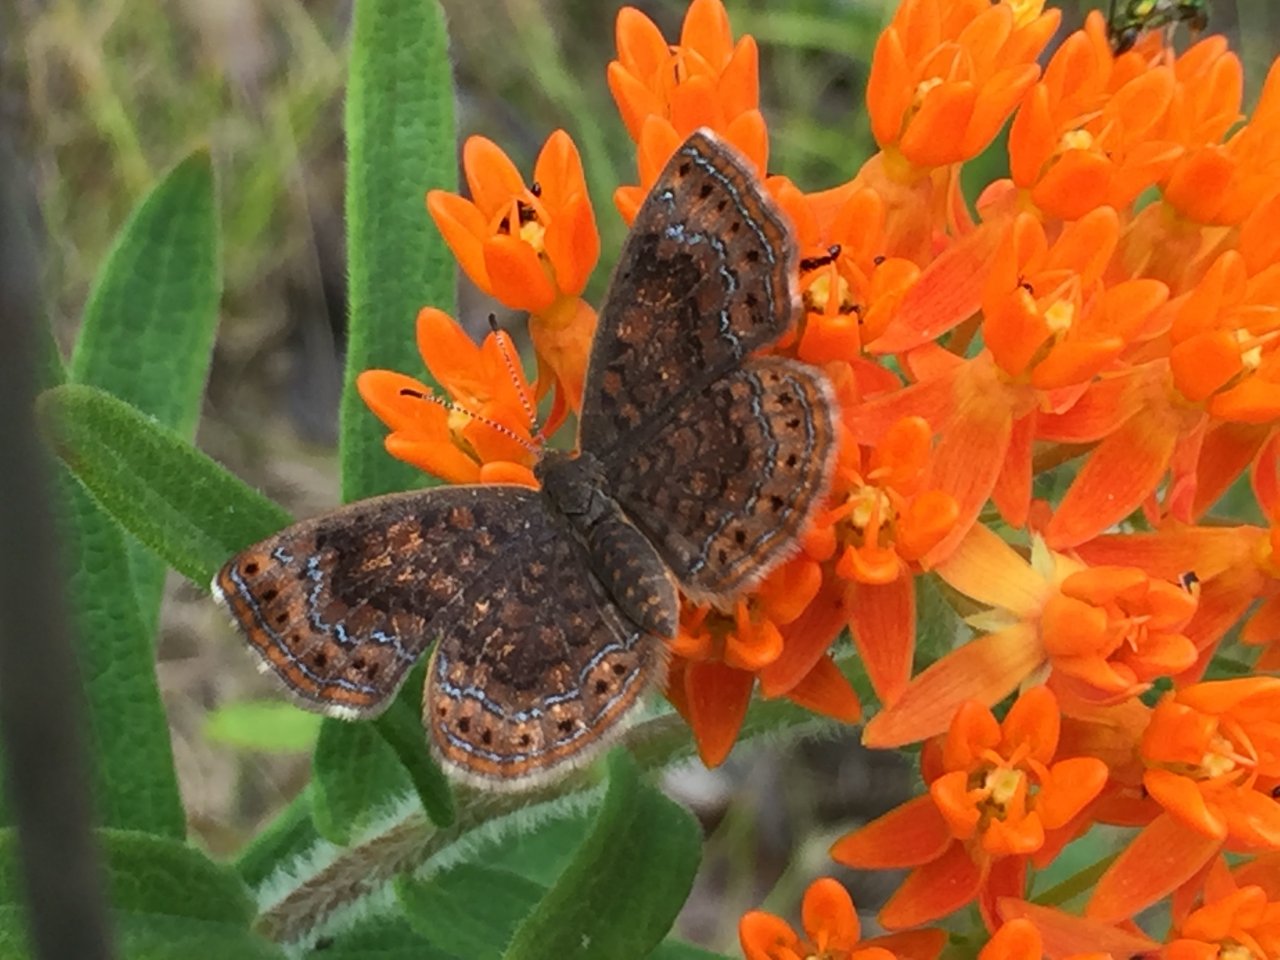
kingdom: Animalia
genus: Calephelis
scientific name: Calephelis borealis
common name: Northern Metalmark
